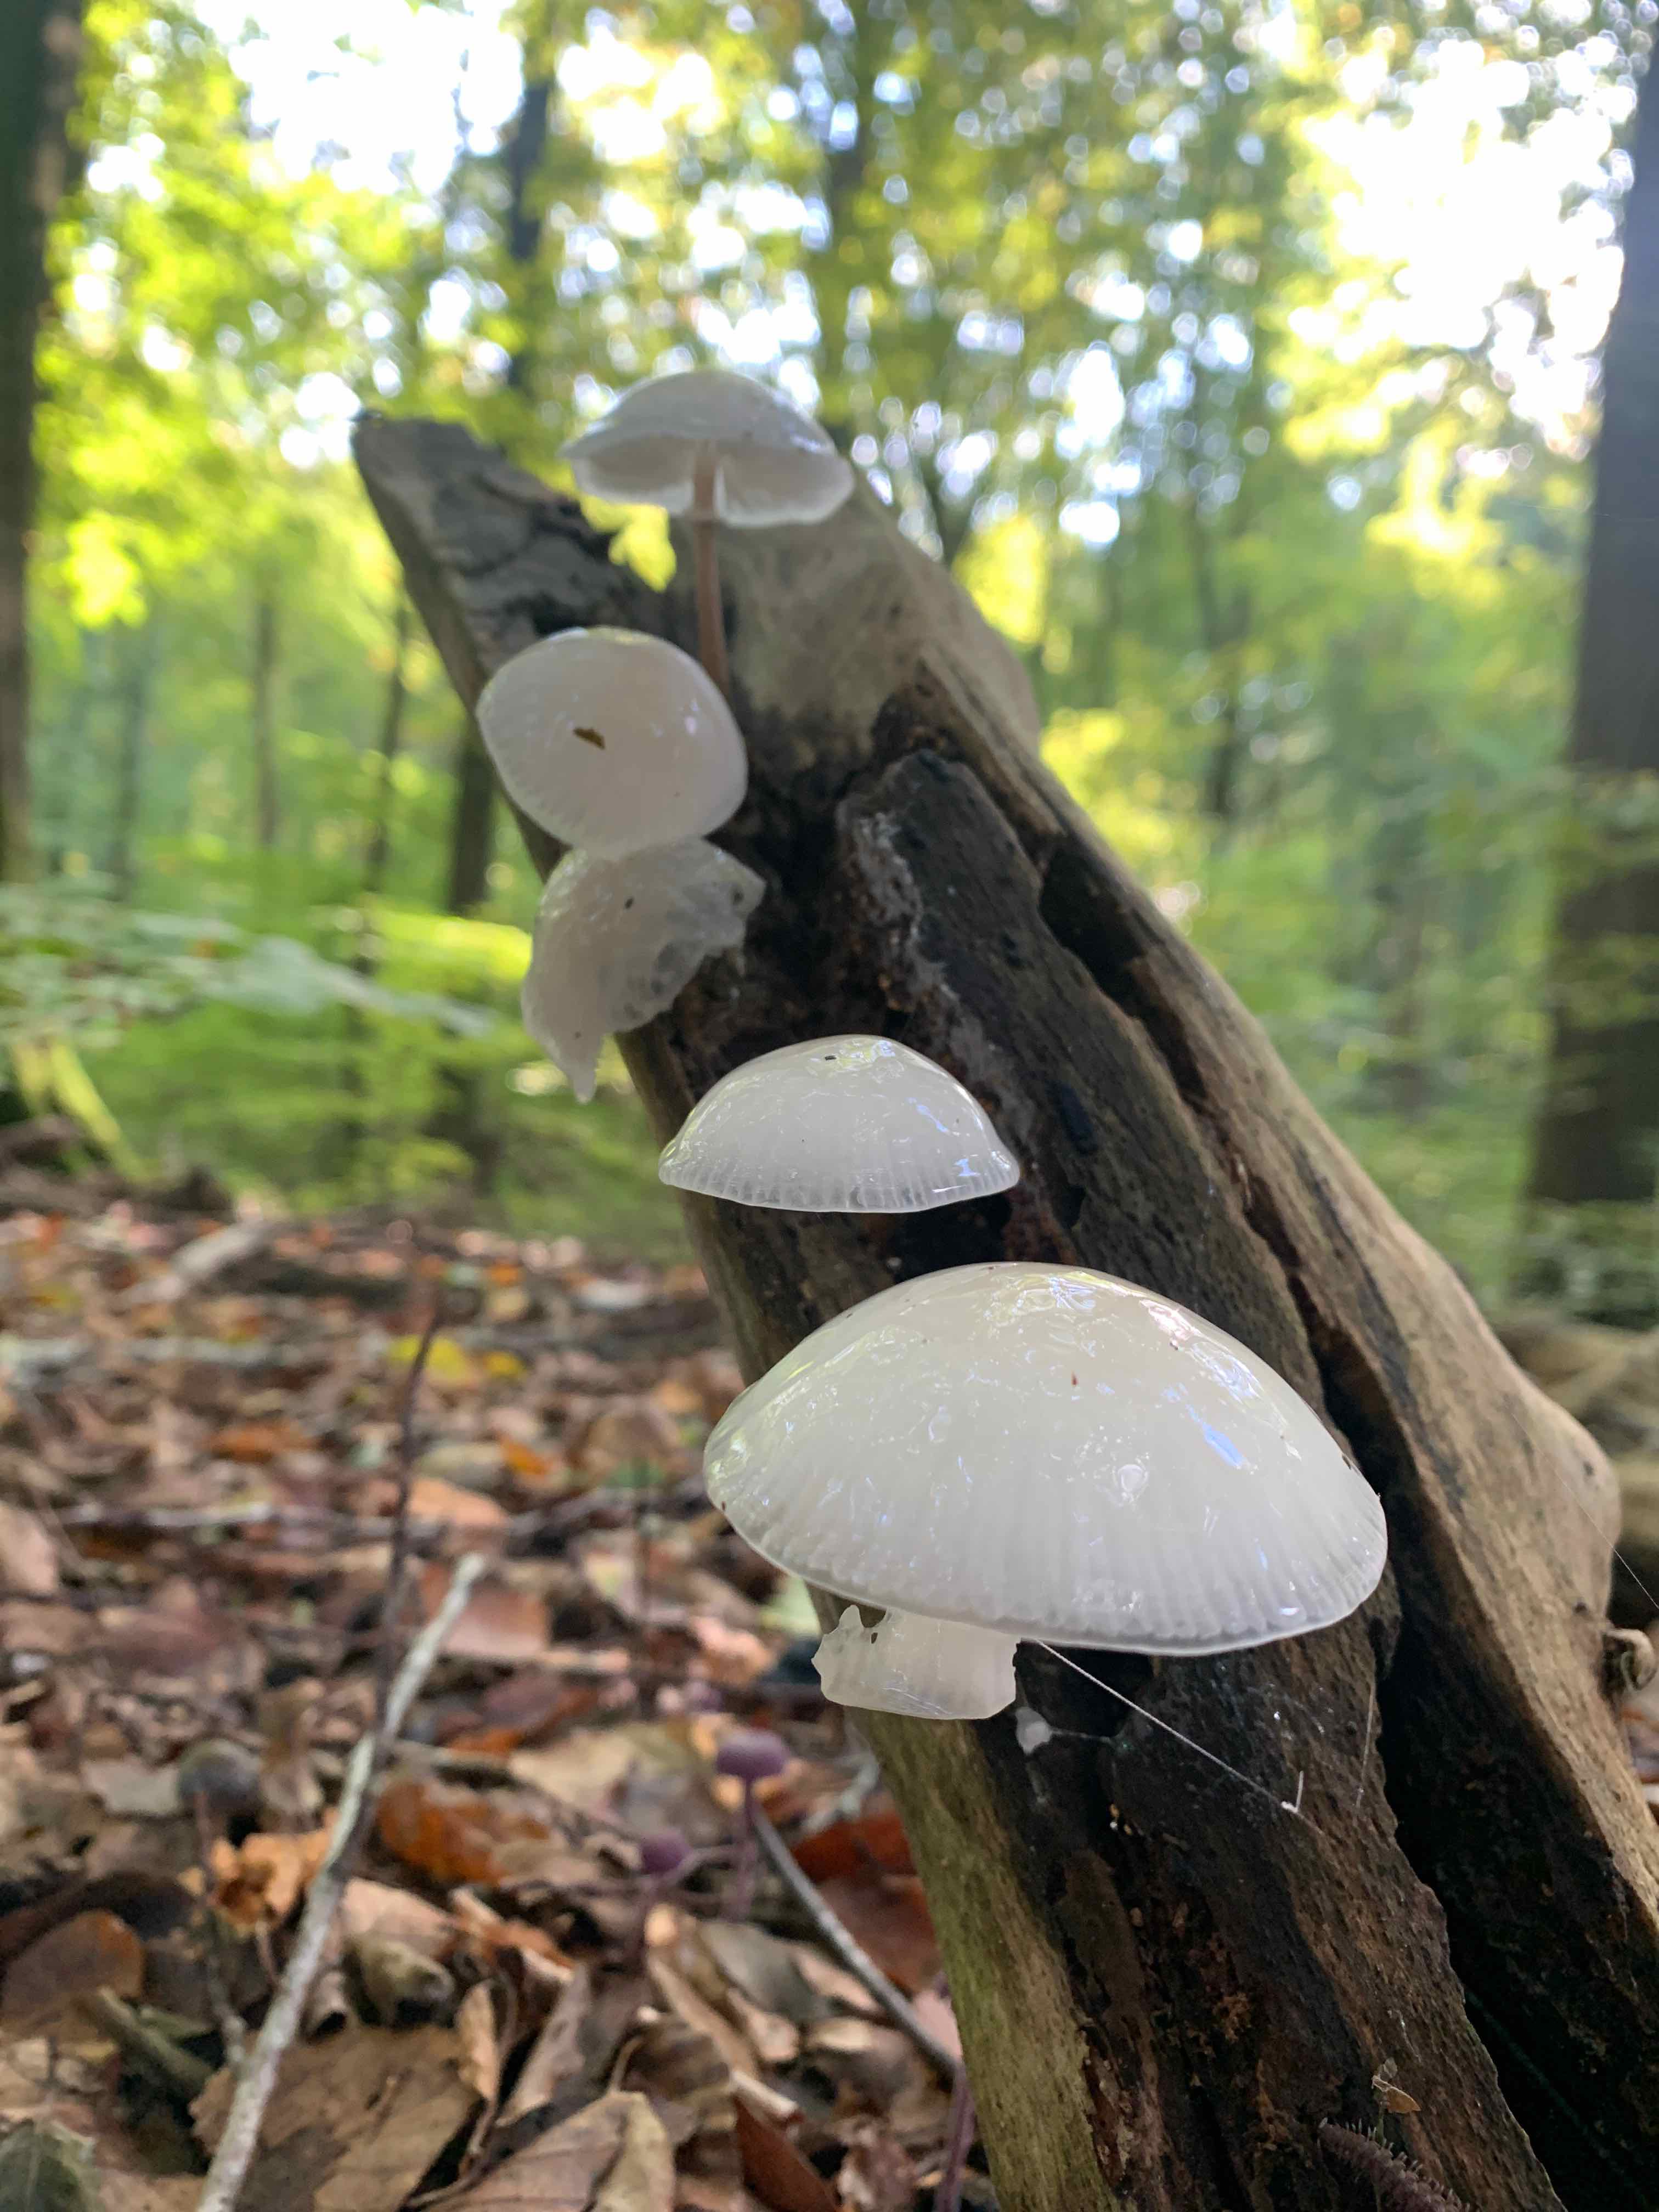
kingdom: Fungi
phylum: Basidiomycota
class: Agaricomycetes
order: Agaricales
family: Physalacriaceae
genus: Mucidula
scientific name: Mucidula mucida
